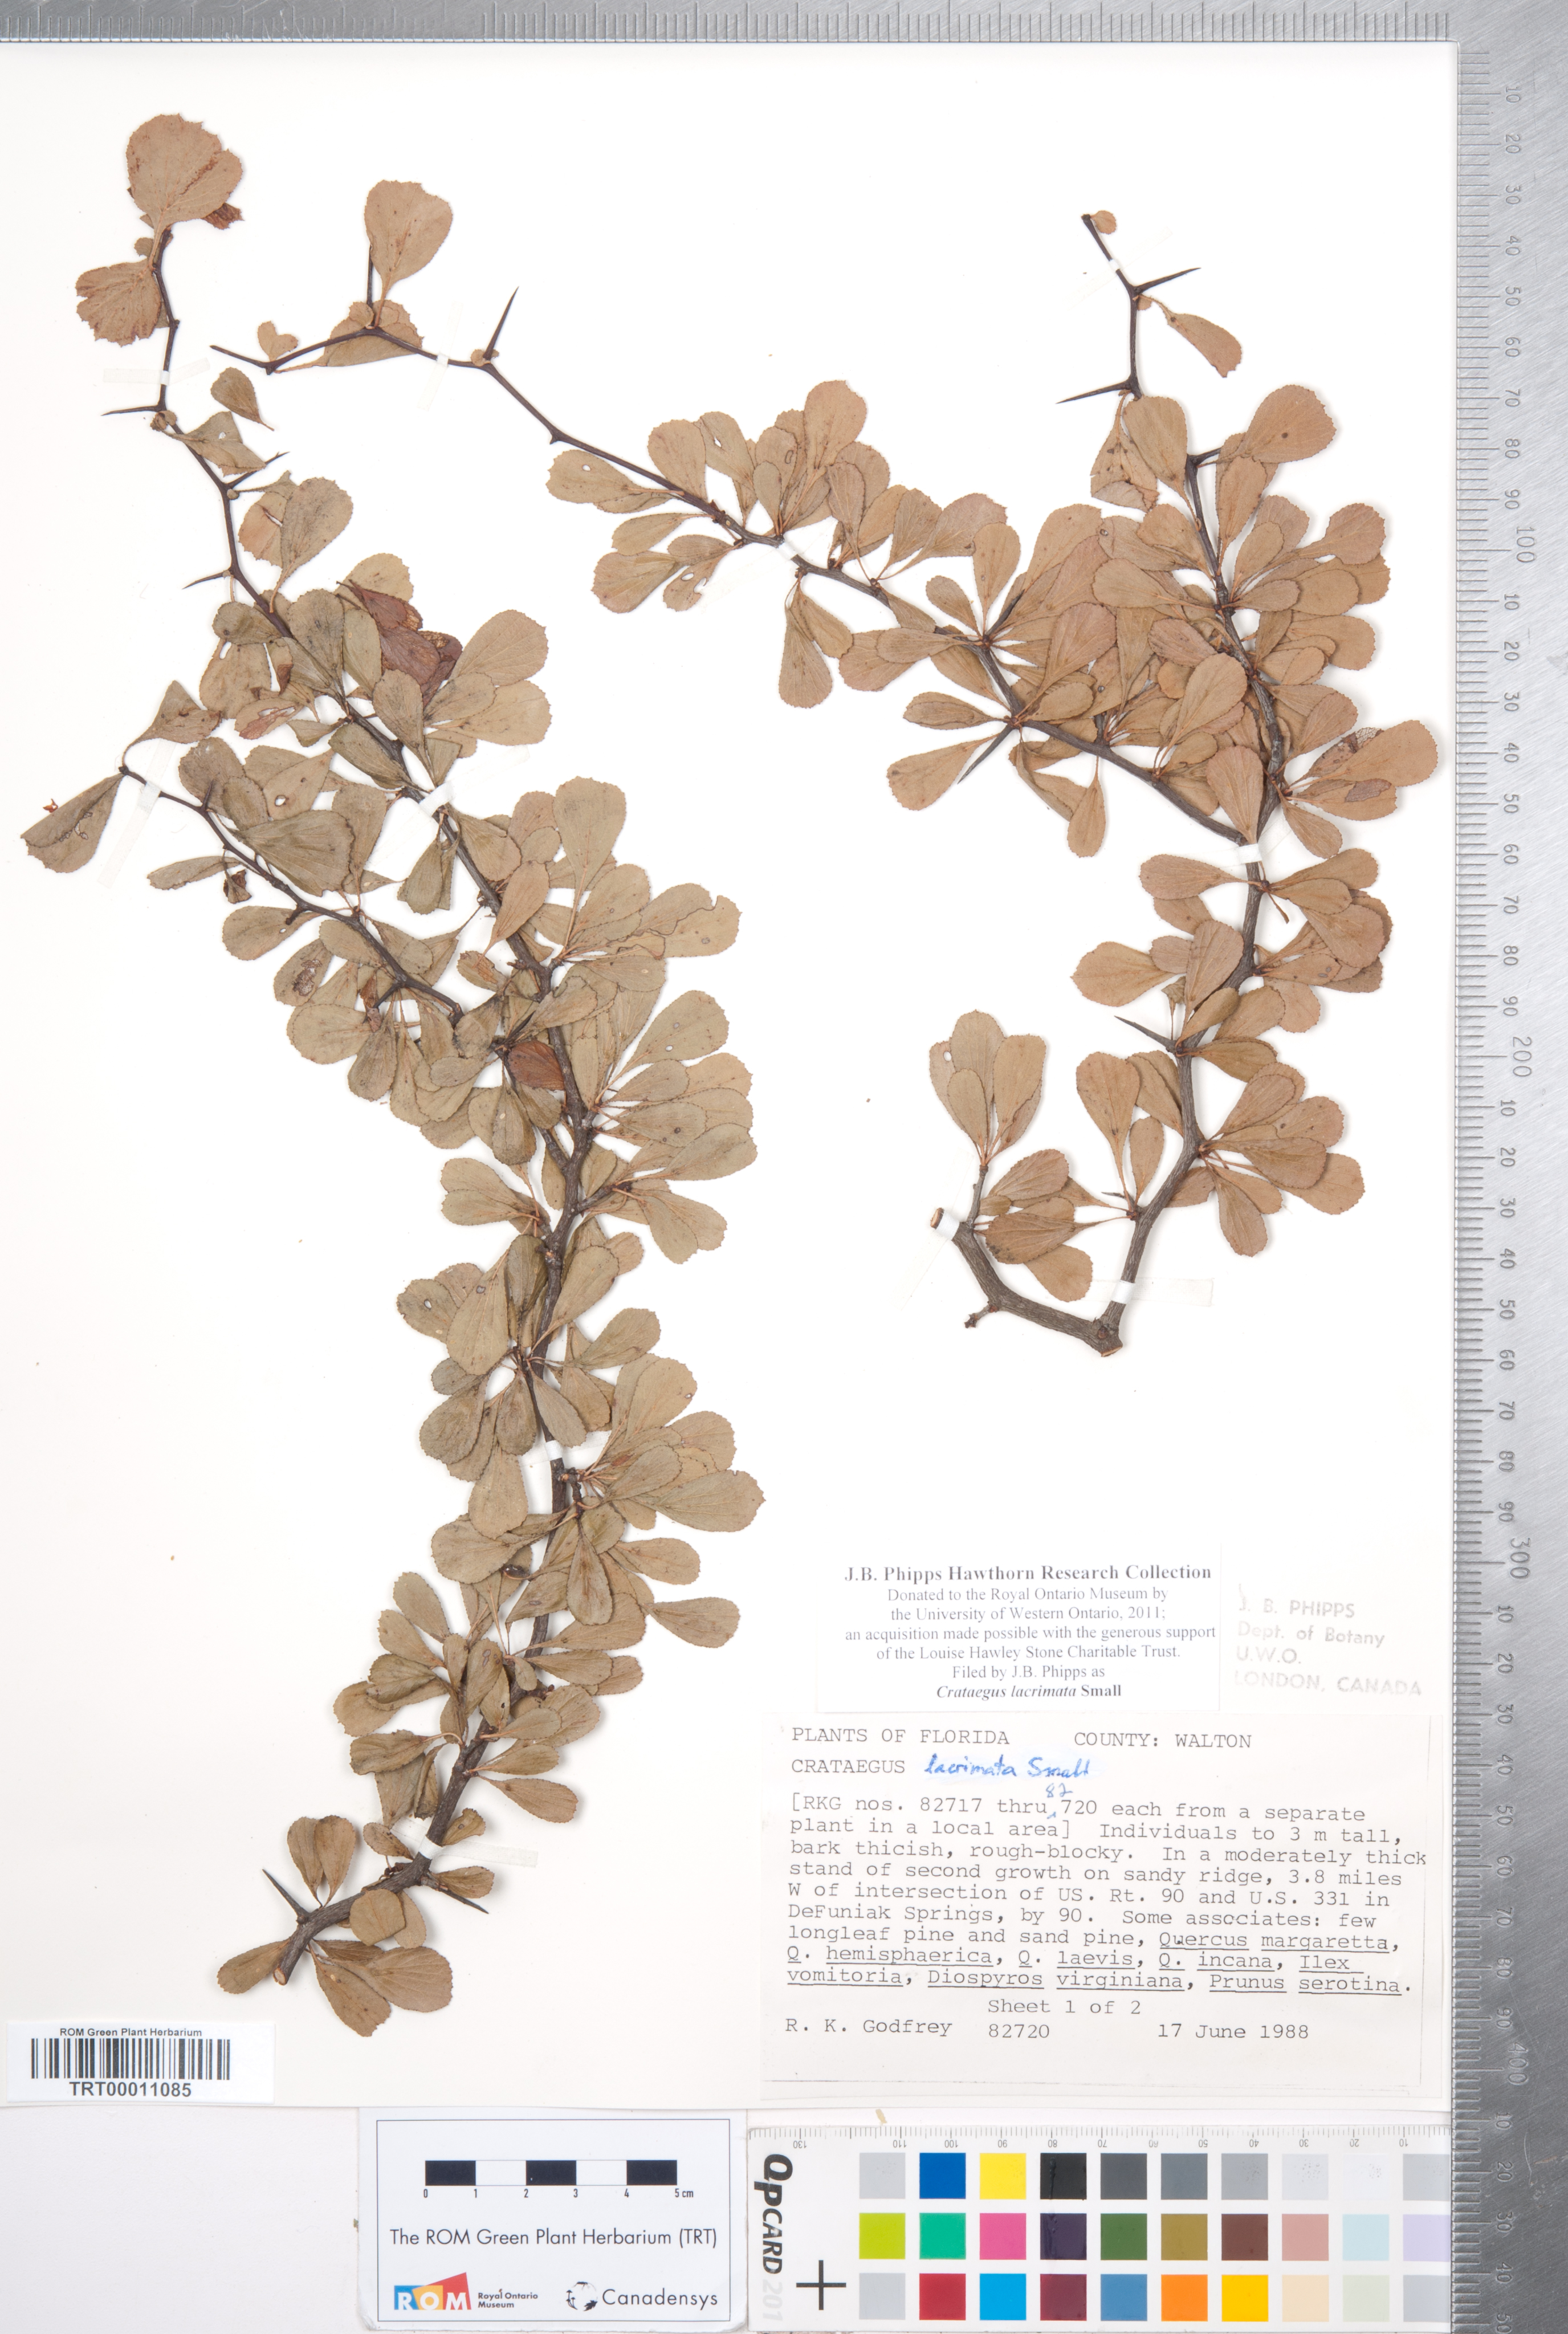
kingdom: Plantae
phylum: Tracheophyta
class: Magnoliopsida
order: Rosales
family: Rosaceae
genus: Crataegus
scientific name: Crataegus lacrimata
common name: Weeping hawthorn
